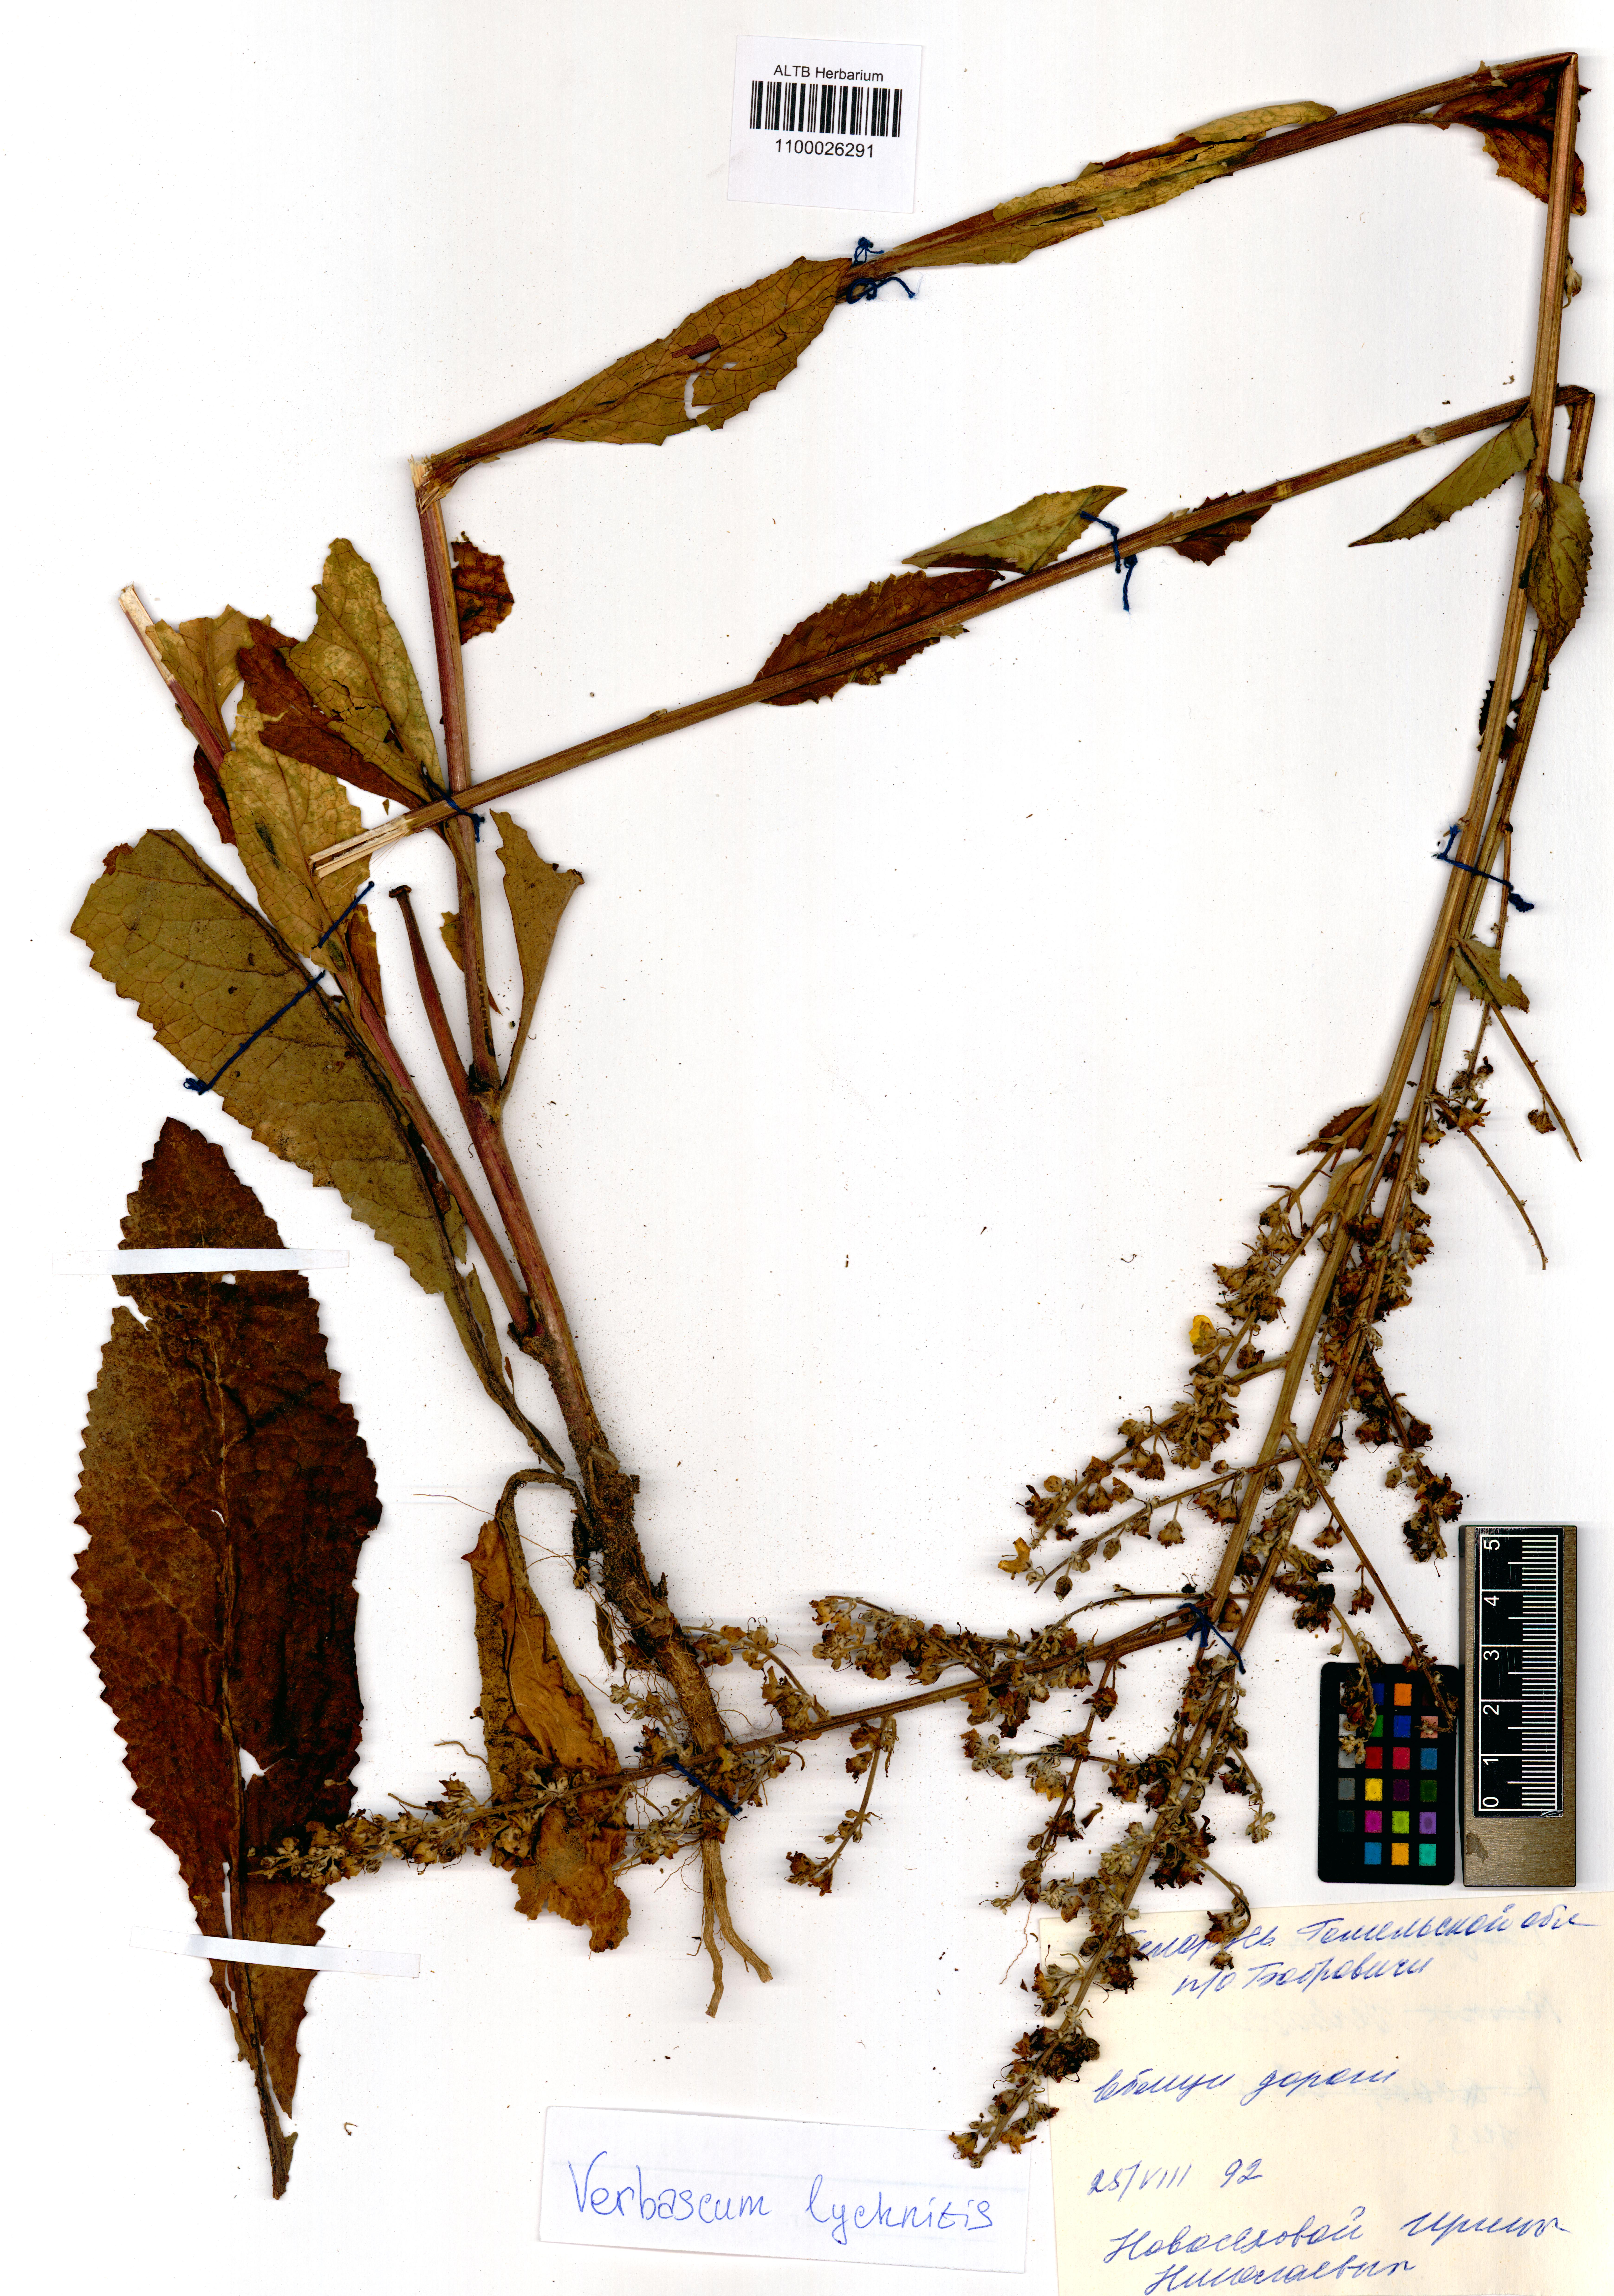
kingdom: Plantae
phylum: Tracheophyta
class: Magnoliopsida
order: Lamiales
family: Scrophulariaceae
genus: Verbascum
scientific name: Verbascum lychnitis
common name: White mullein
